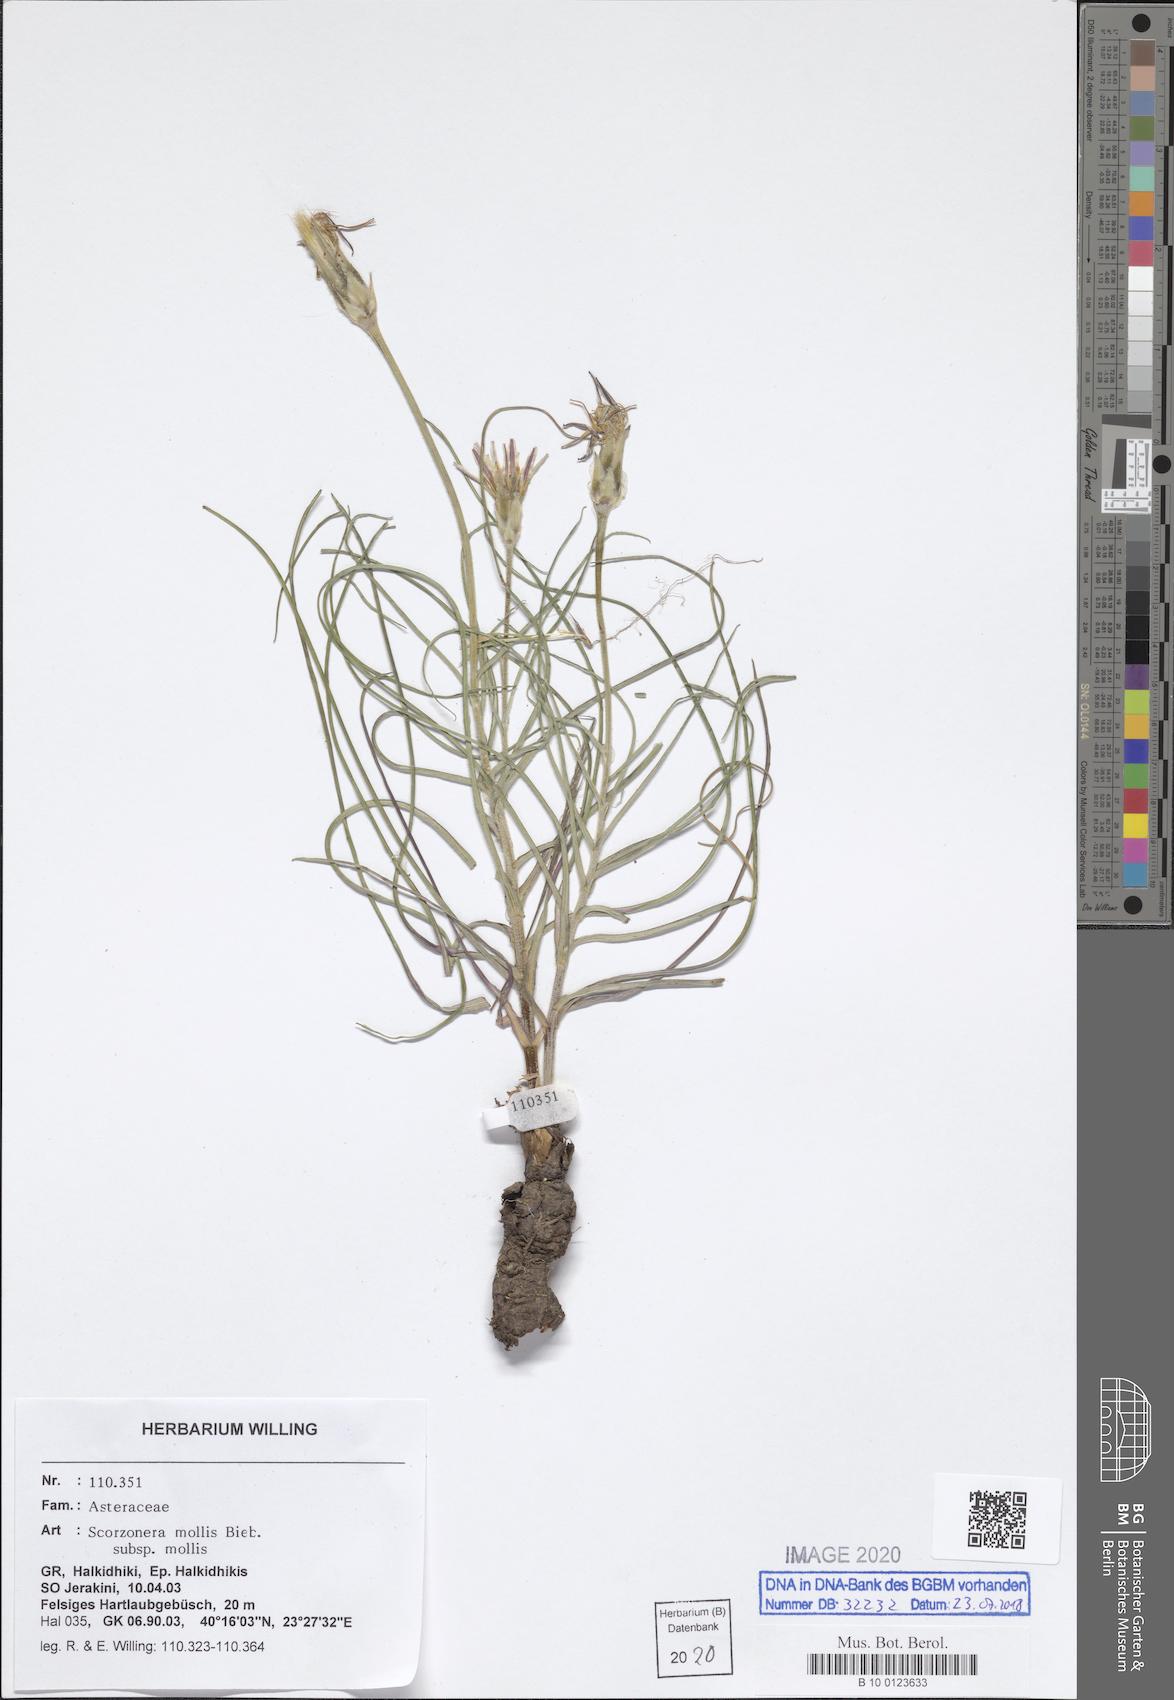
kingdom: Plantae
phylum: Tracheophyta
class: Magnoliopsida
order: Asterales
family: Asteraceae
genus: Candollea
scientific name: Candollea mollis
